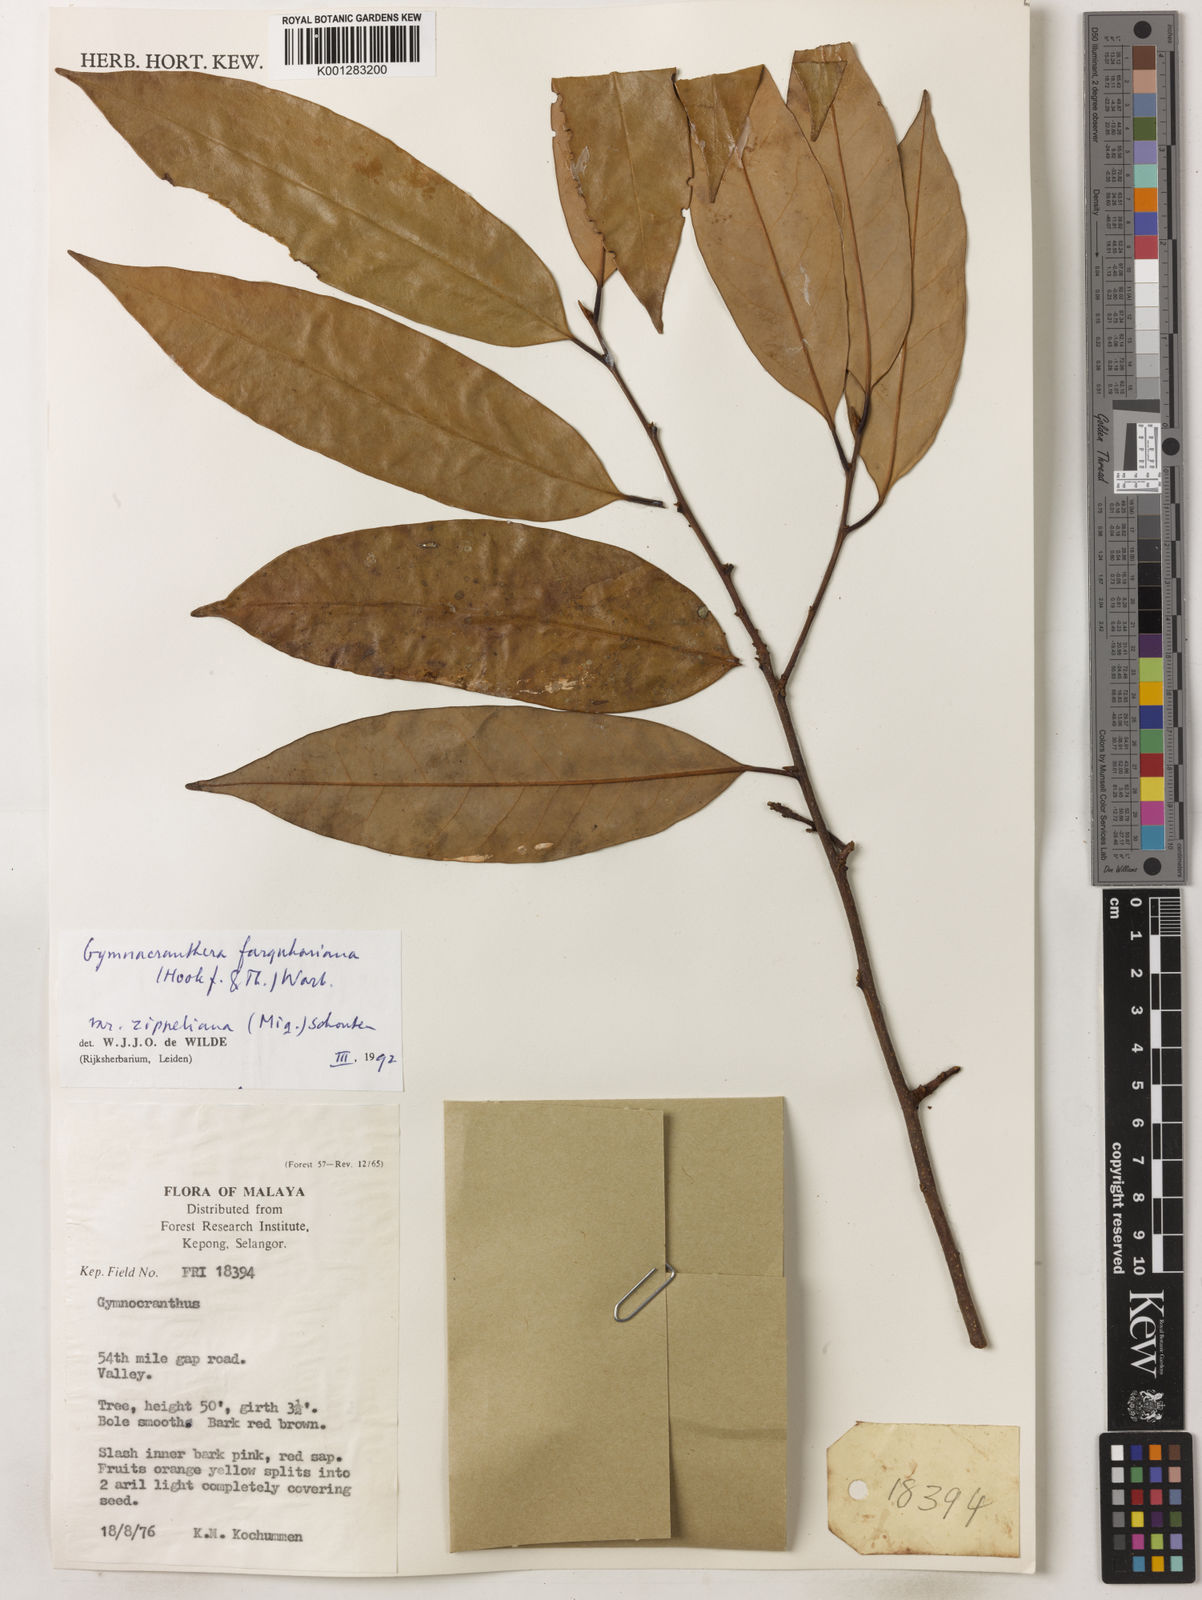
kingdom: Plantae
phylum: Tracheophyta
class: Magnoliopsida
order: Magnoliales
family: Myristicaceae
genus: Gymnacranthera
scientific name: Gymnacranthera farquhariana
